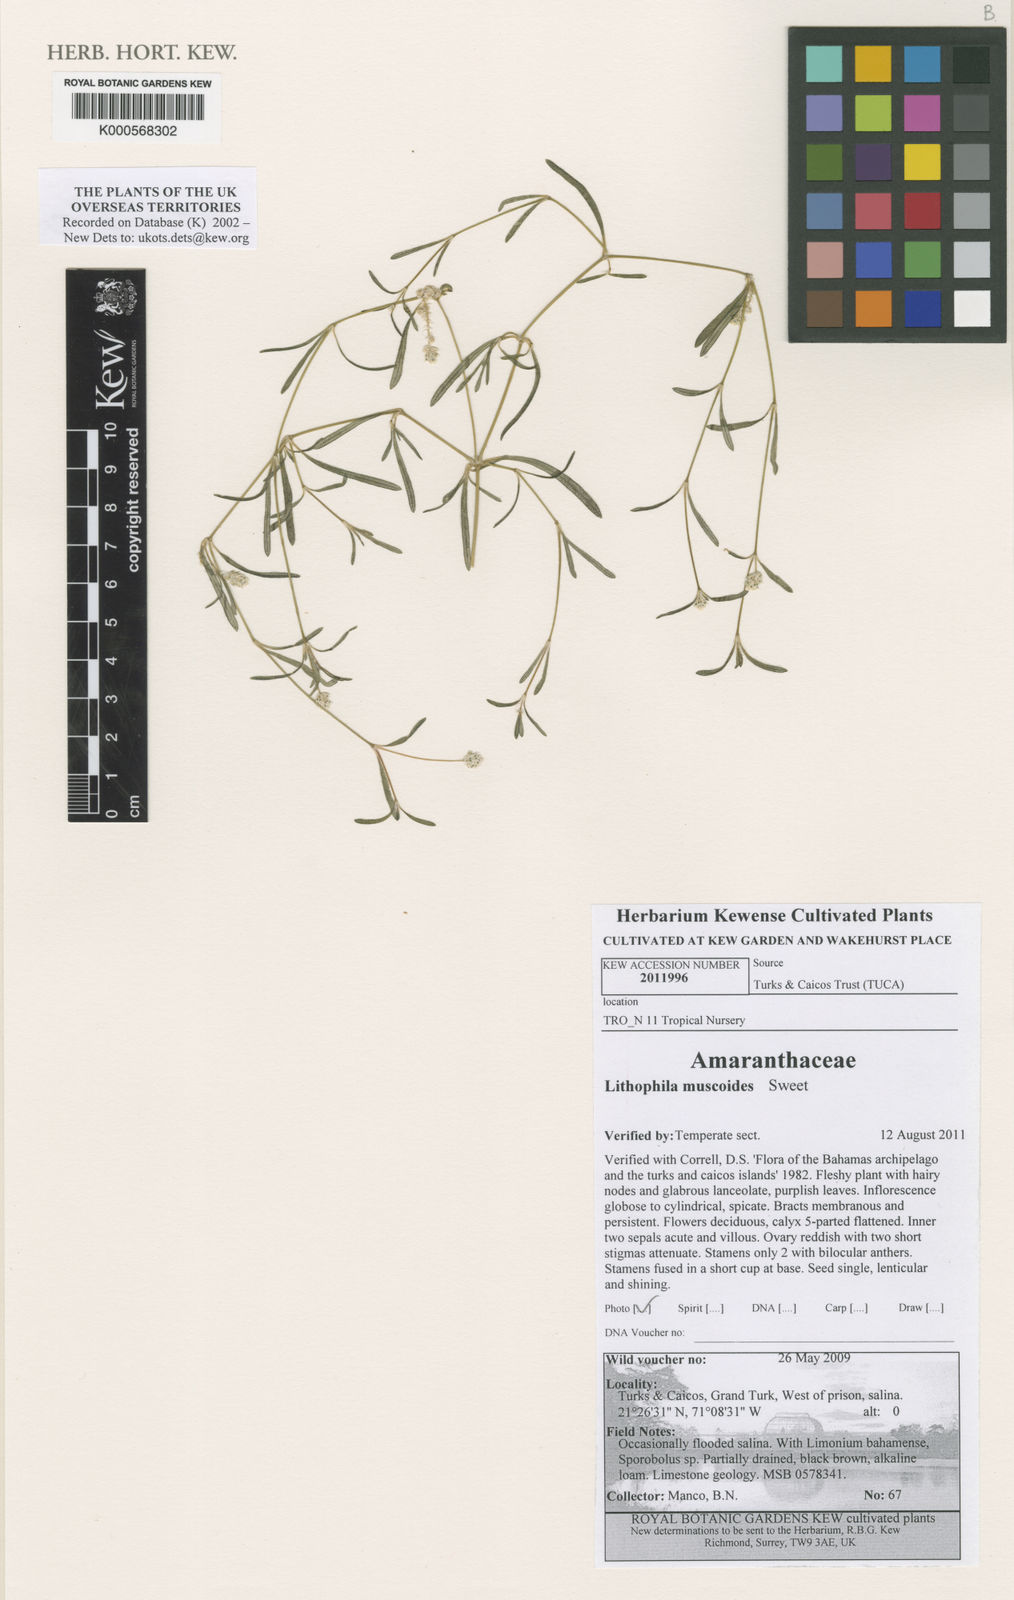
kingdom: Plantae
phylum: Tracheophyta
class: Magnoliopsida
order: Solanales
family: Solanaceae
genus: Solanum
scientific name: Solanum dulcamara
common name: Climbing nightshade
